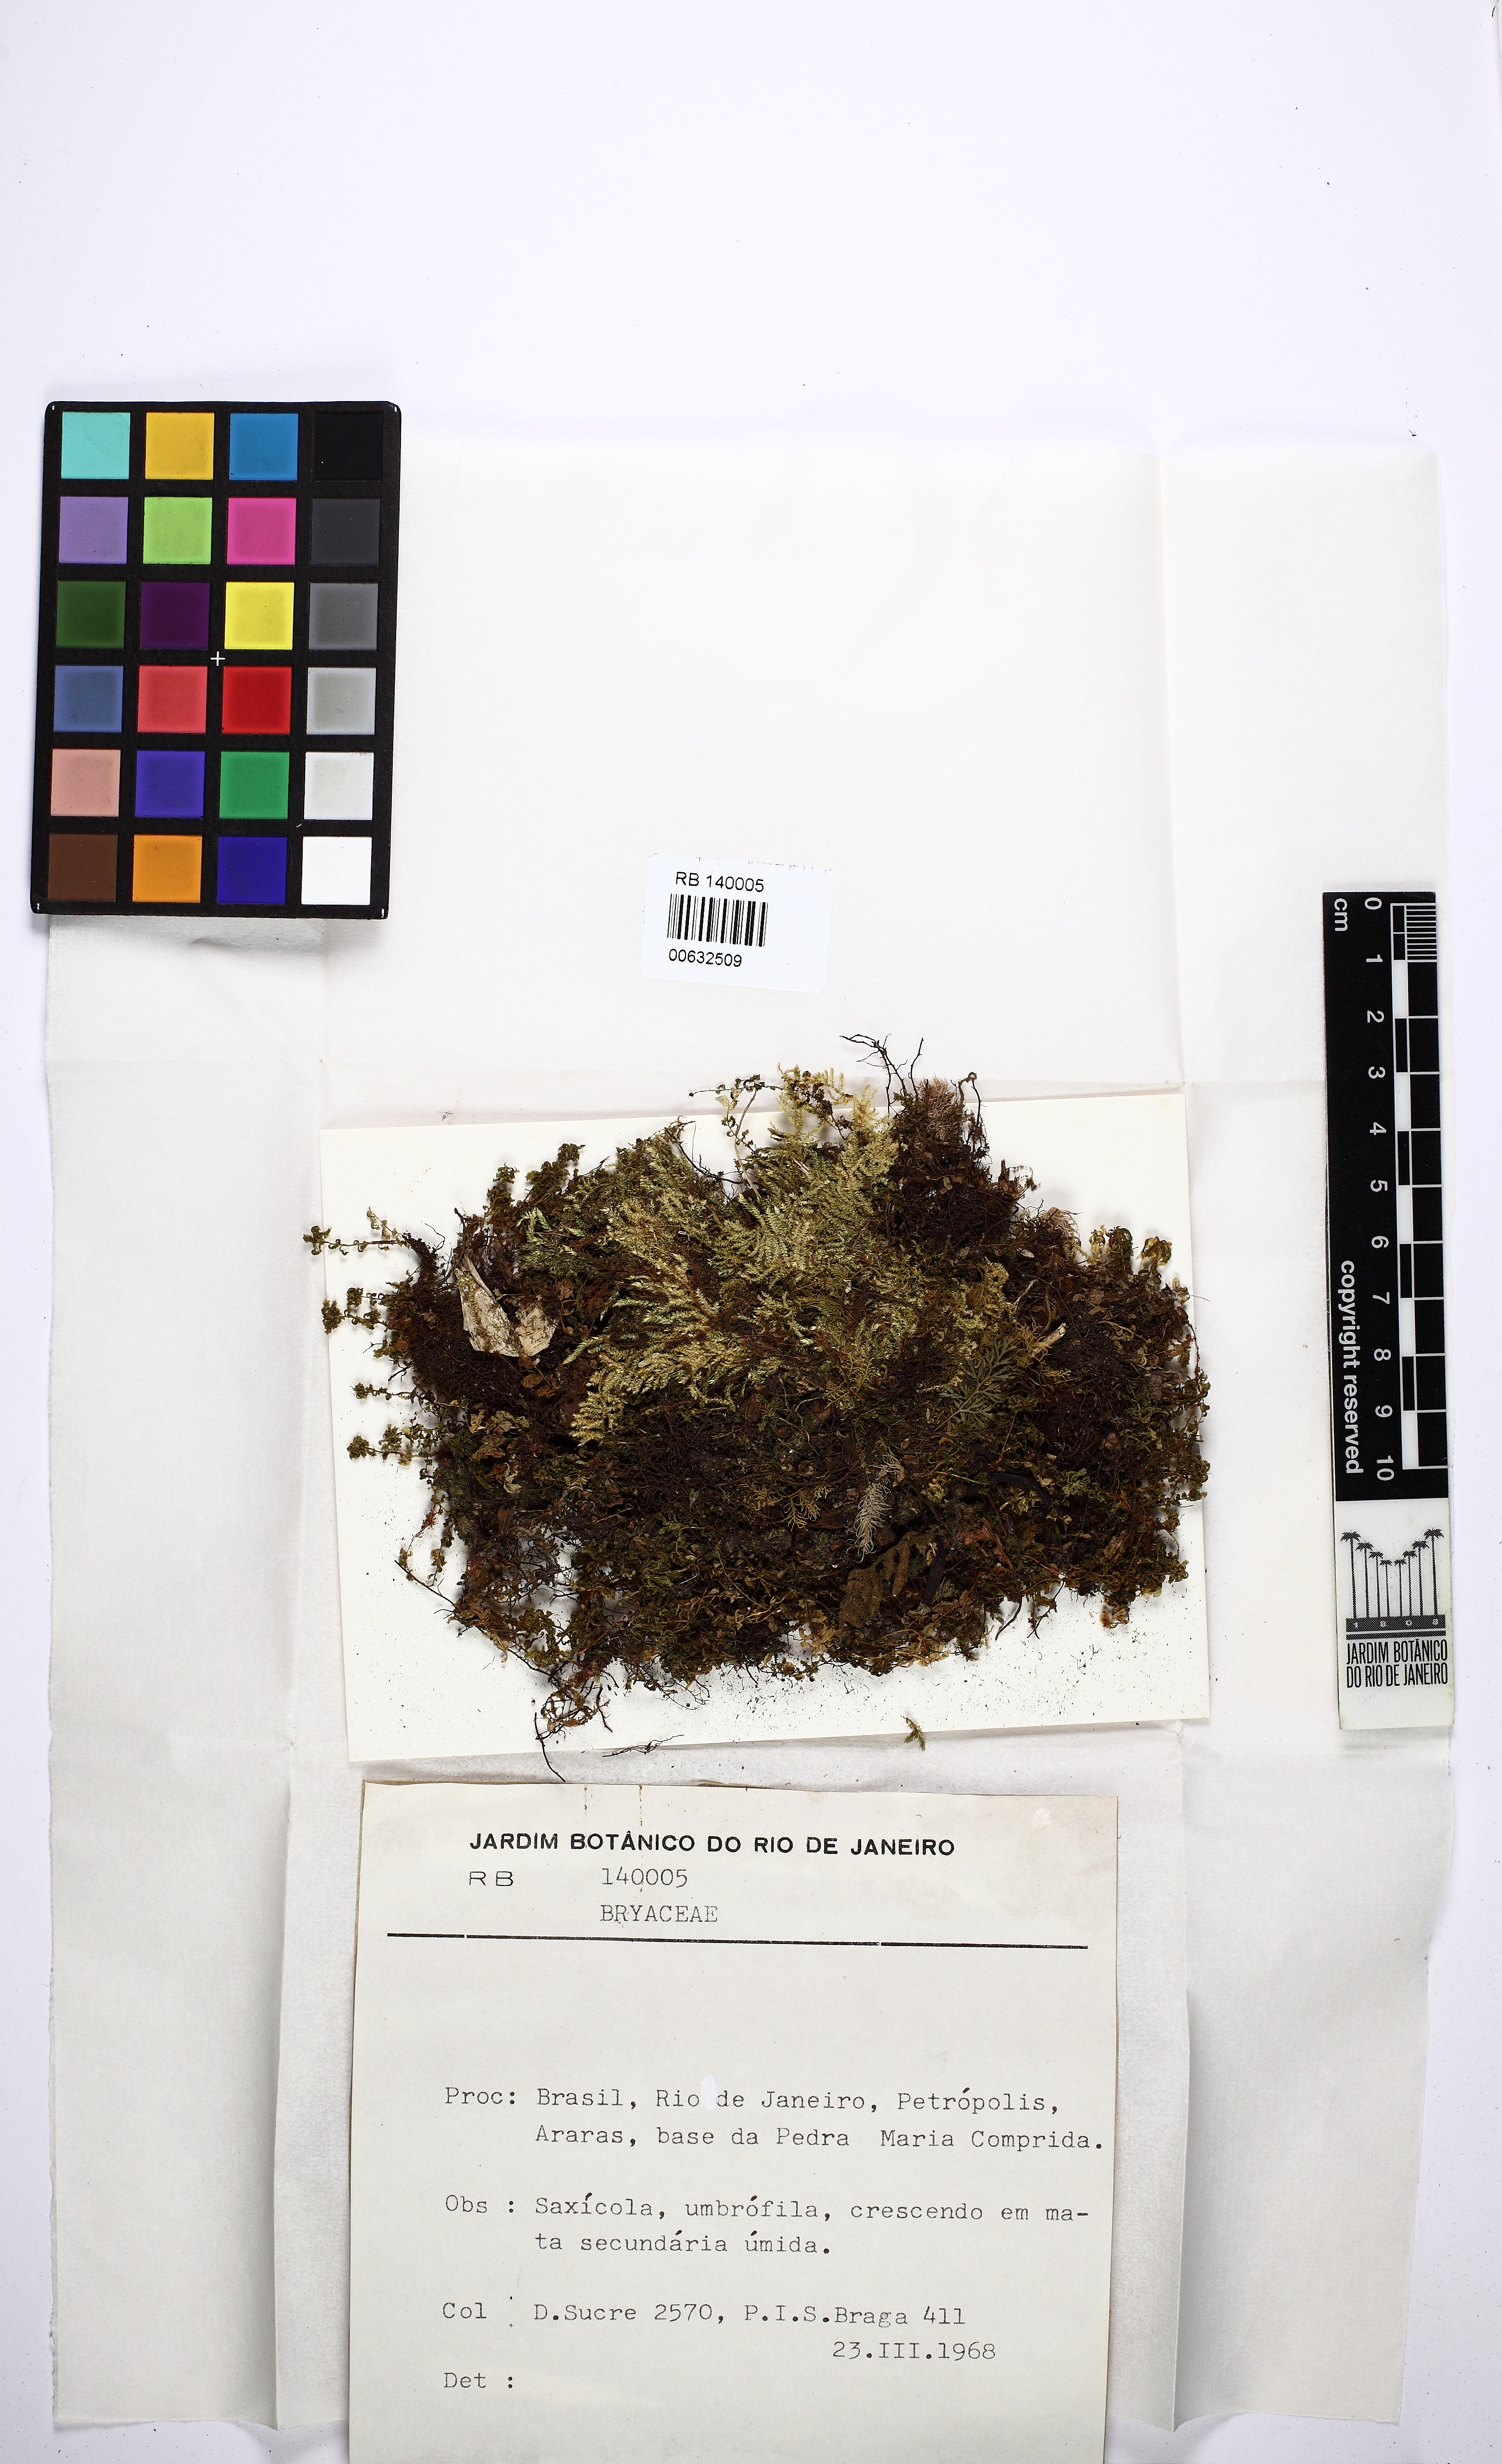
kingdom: Plantae
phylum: Bryophyta
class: Bryopsida
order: Bryales
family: Bryaceae
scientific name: Bryaceae
